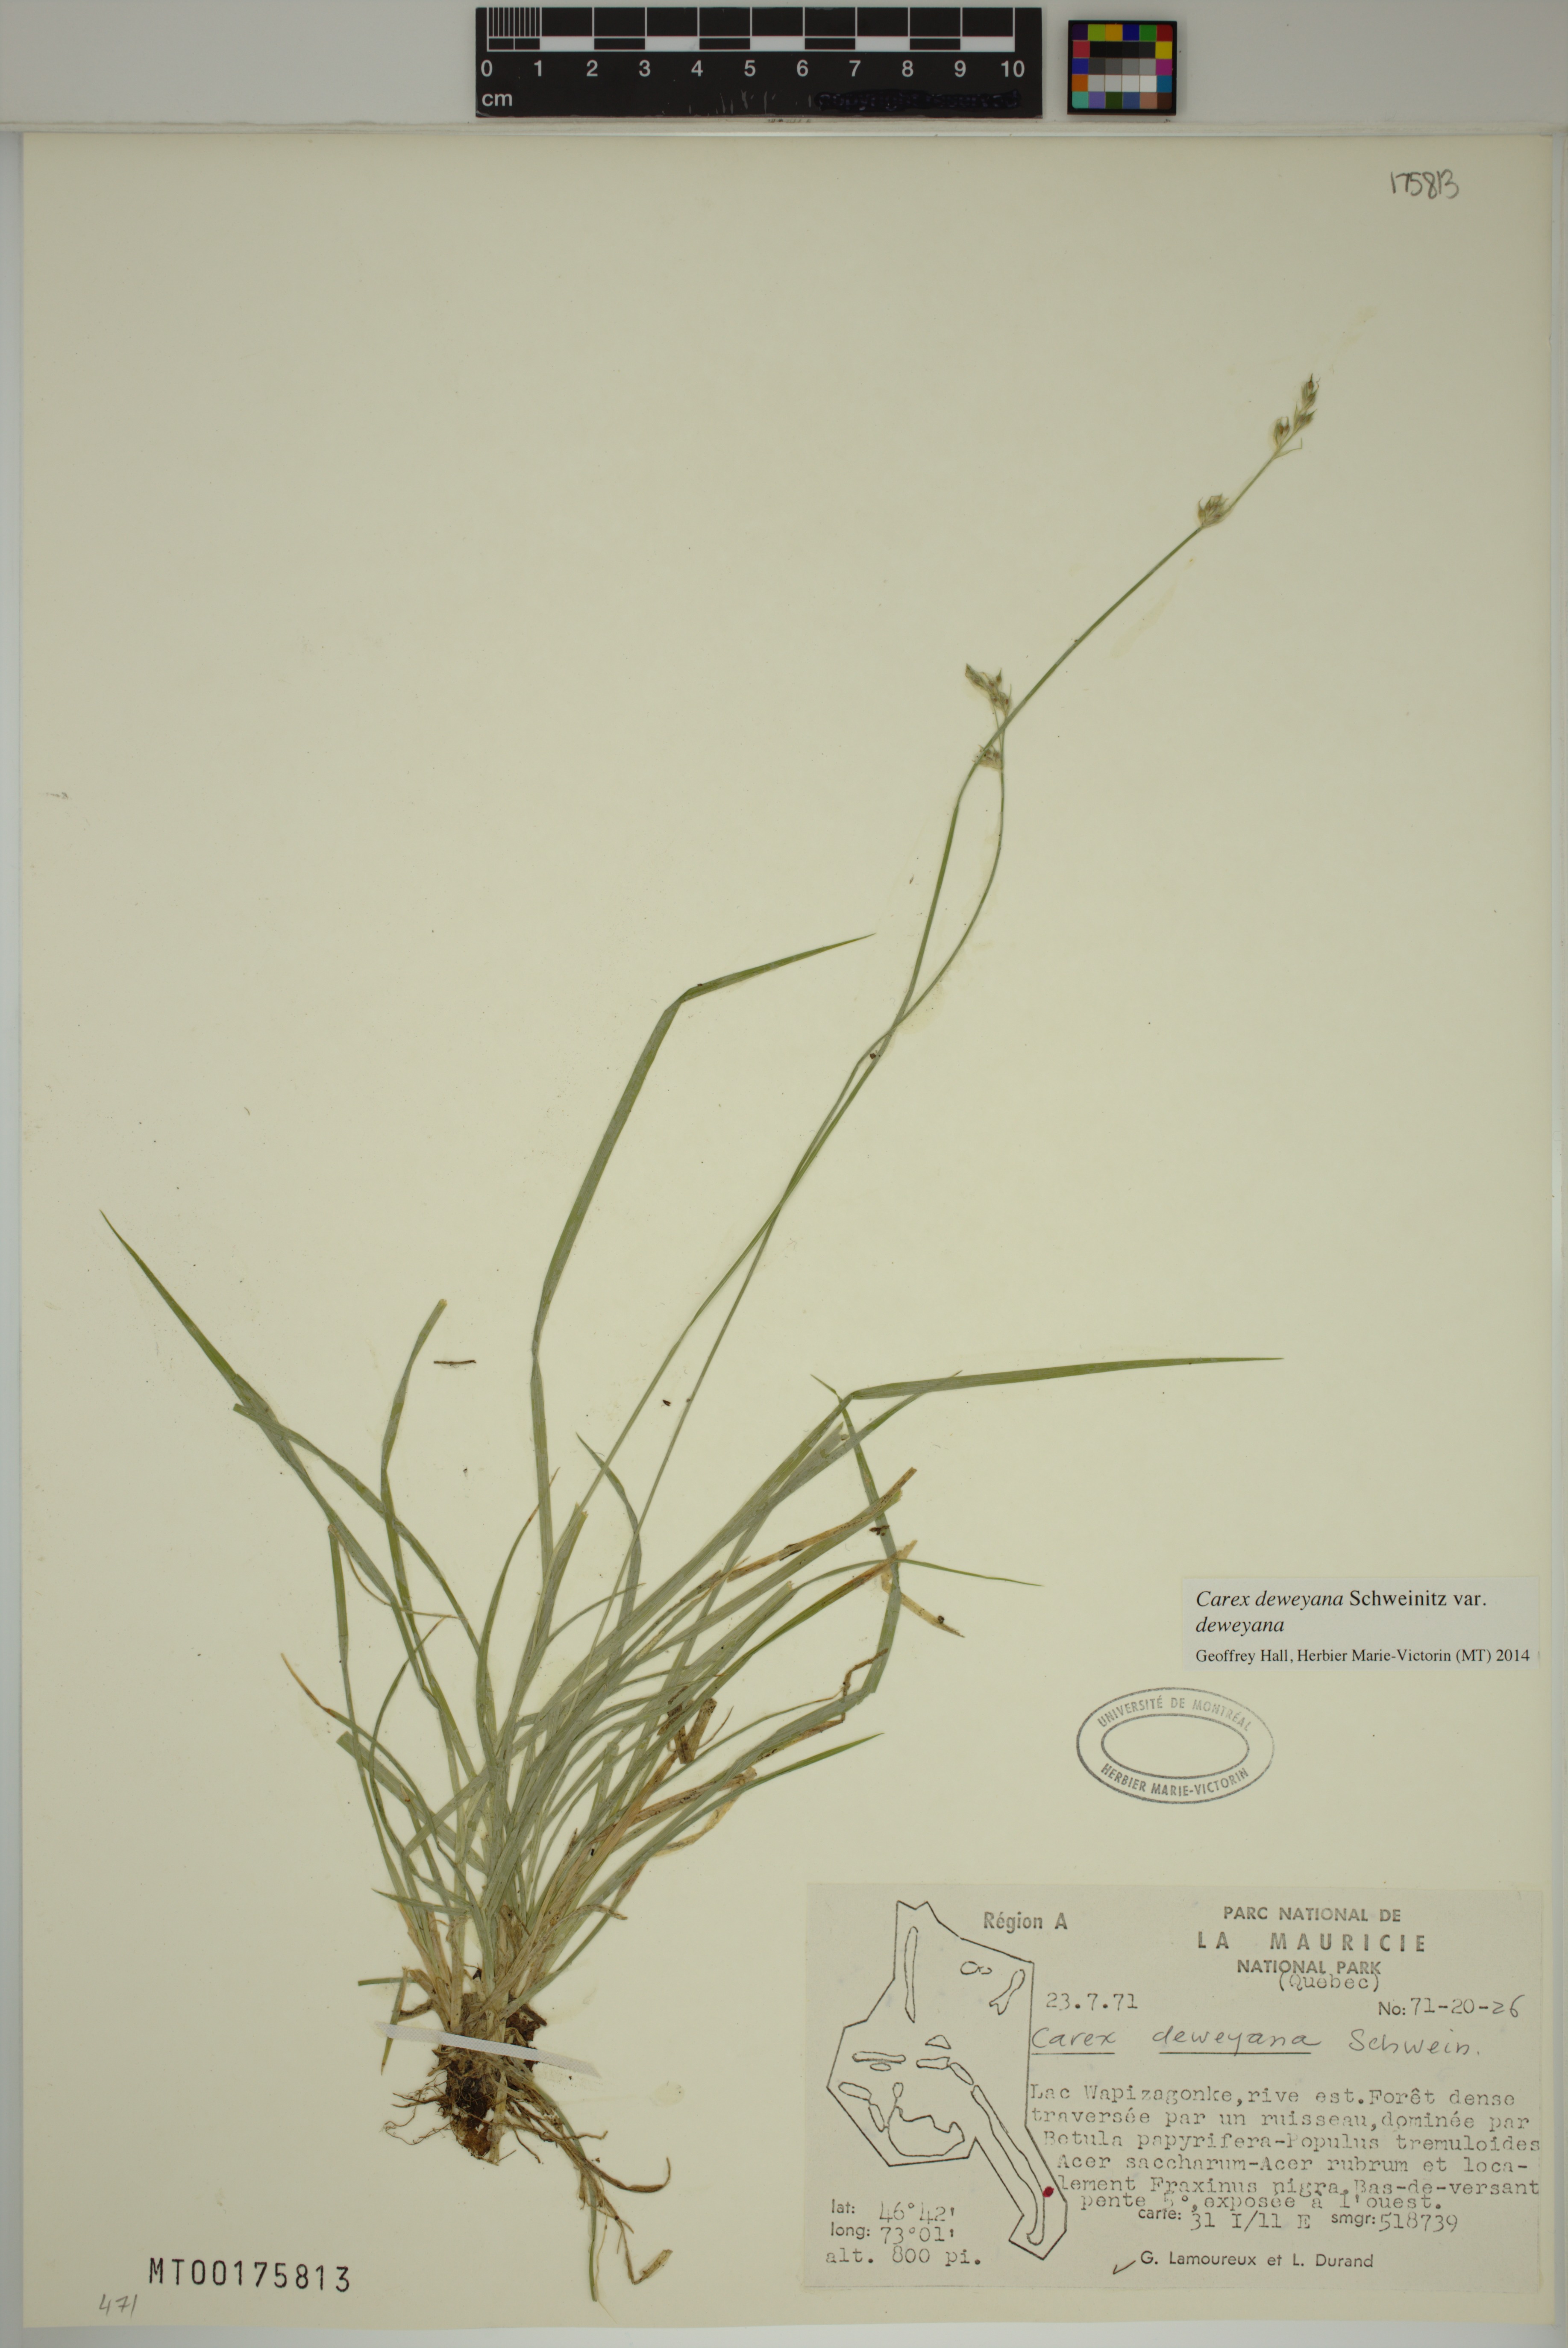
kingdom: Plantae
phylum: Tracheophyta
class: Liliopsida
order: Poales
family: Cyperaceae
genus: Carex
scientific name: Carex deweyana
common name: Dewey's sedge
